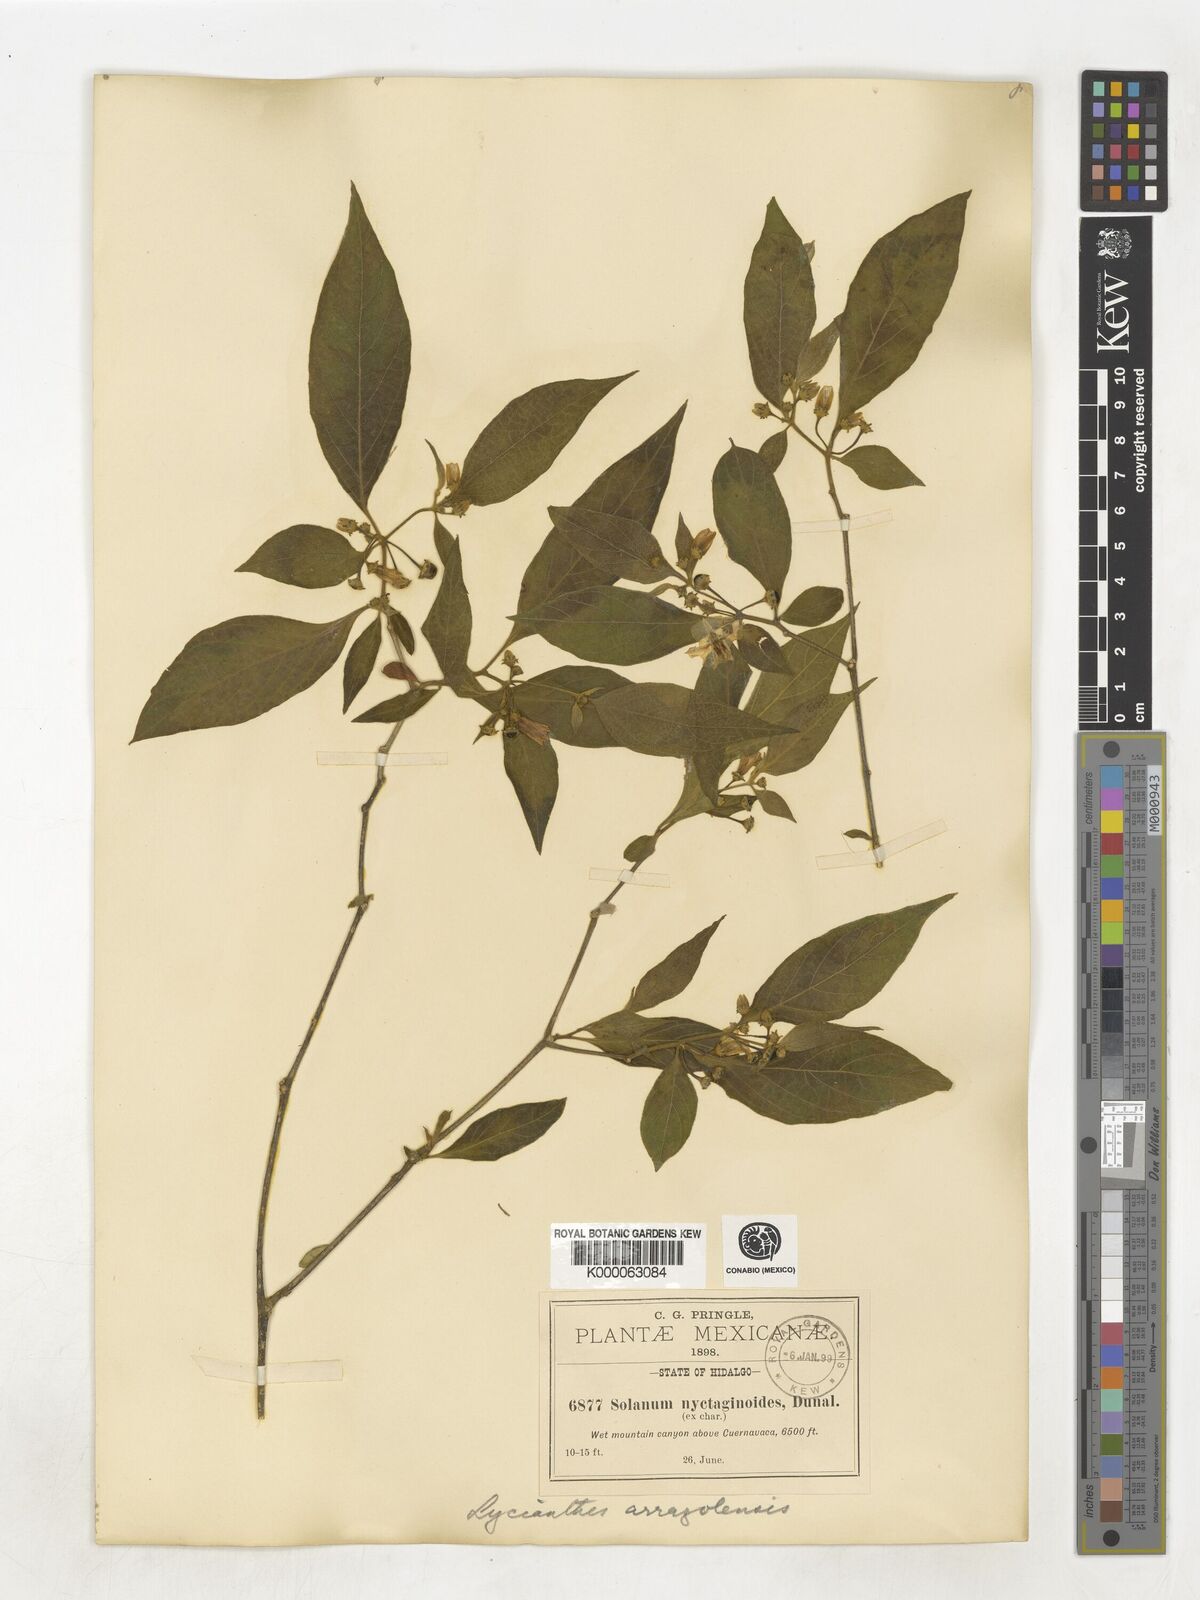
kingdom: Plantae
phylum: Tracheophyta
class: Magnoliopsida
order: Solanales
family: Solanaceae
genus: Lycianthes
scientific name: Lycianthes
